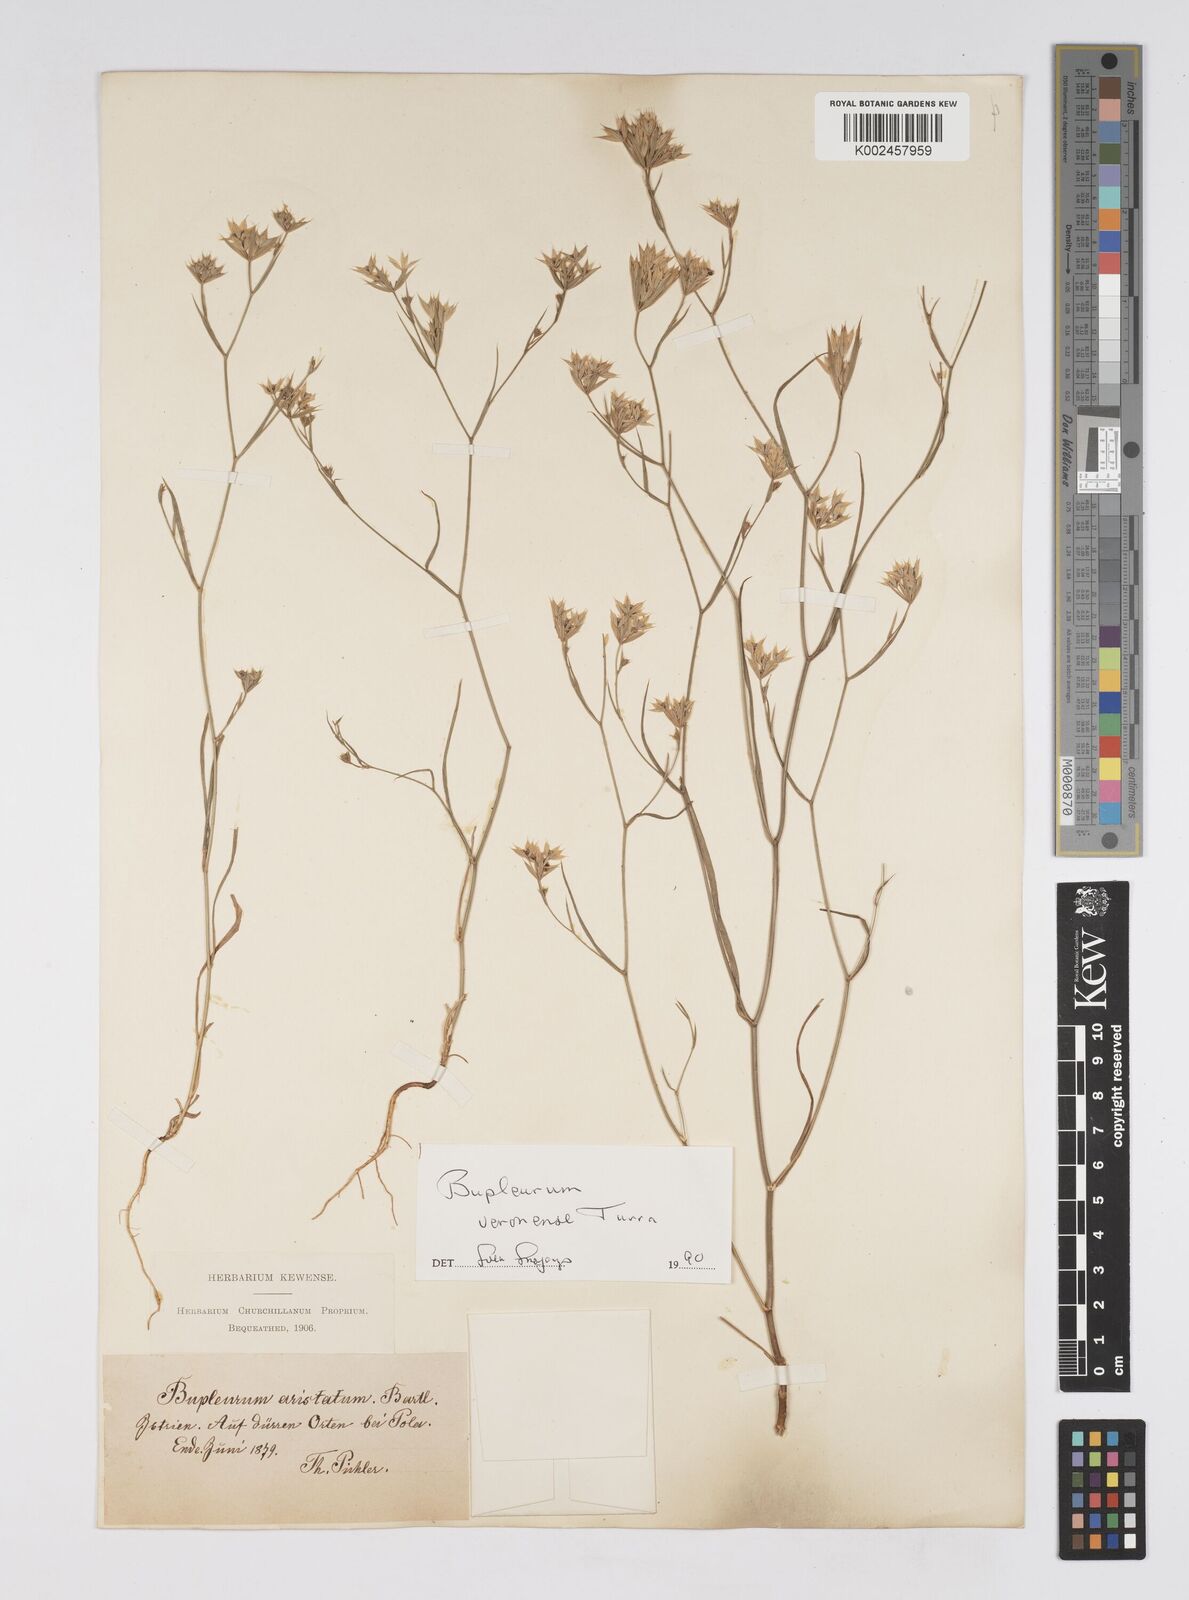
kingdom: Plantae
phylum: Tracheophyta
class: Magnoliopsida
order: Apiales
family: Apiaceae
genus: Bupleurum
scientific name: Bupleurum glumaceum
